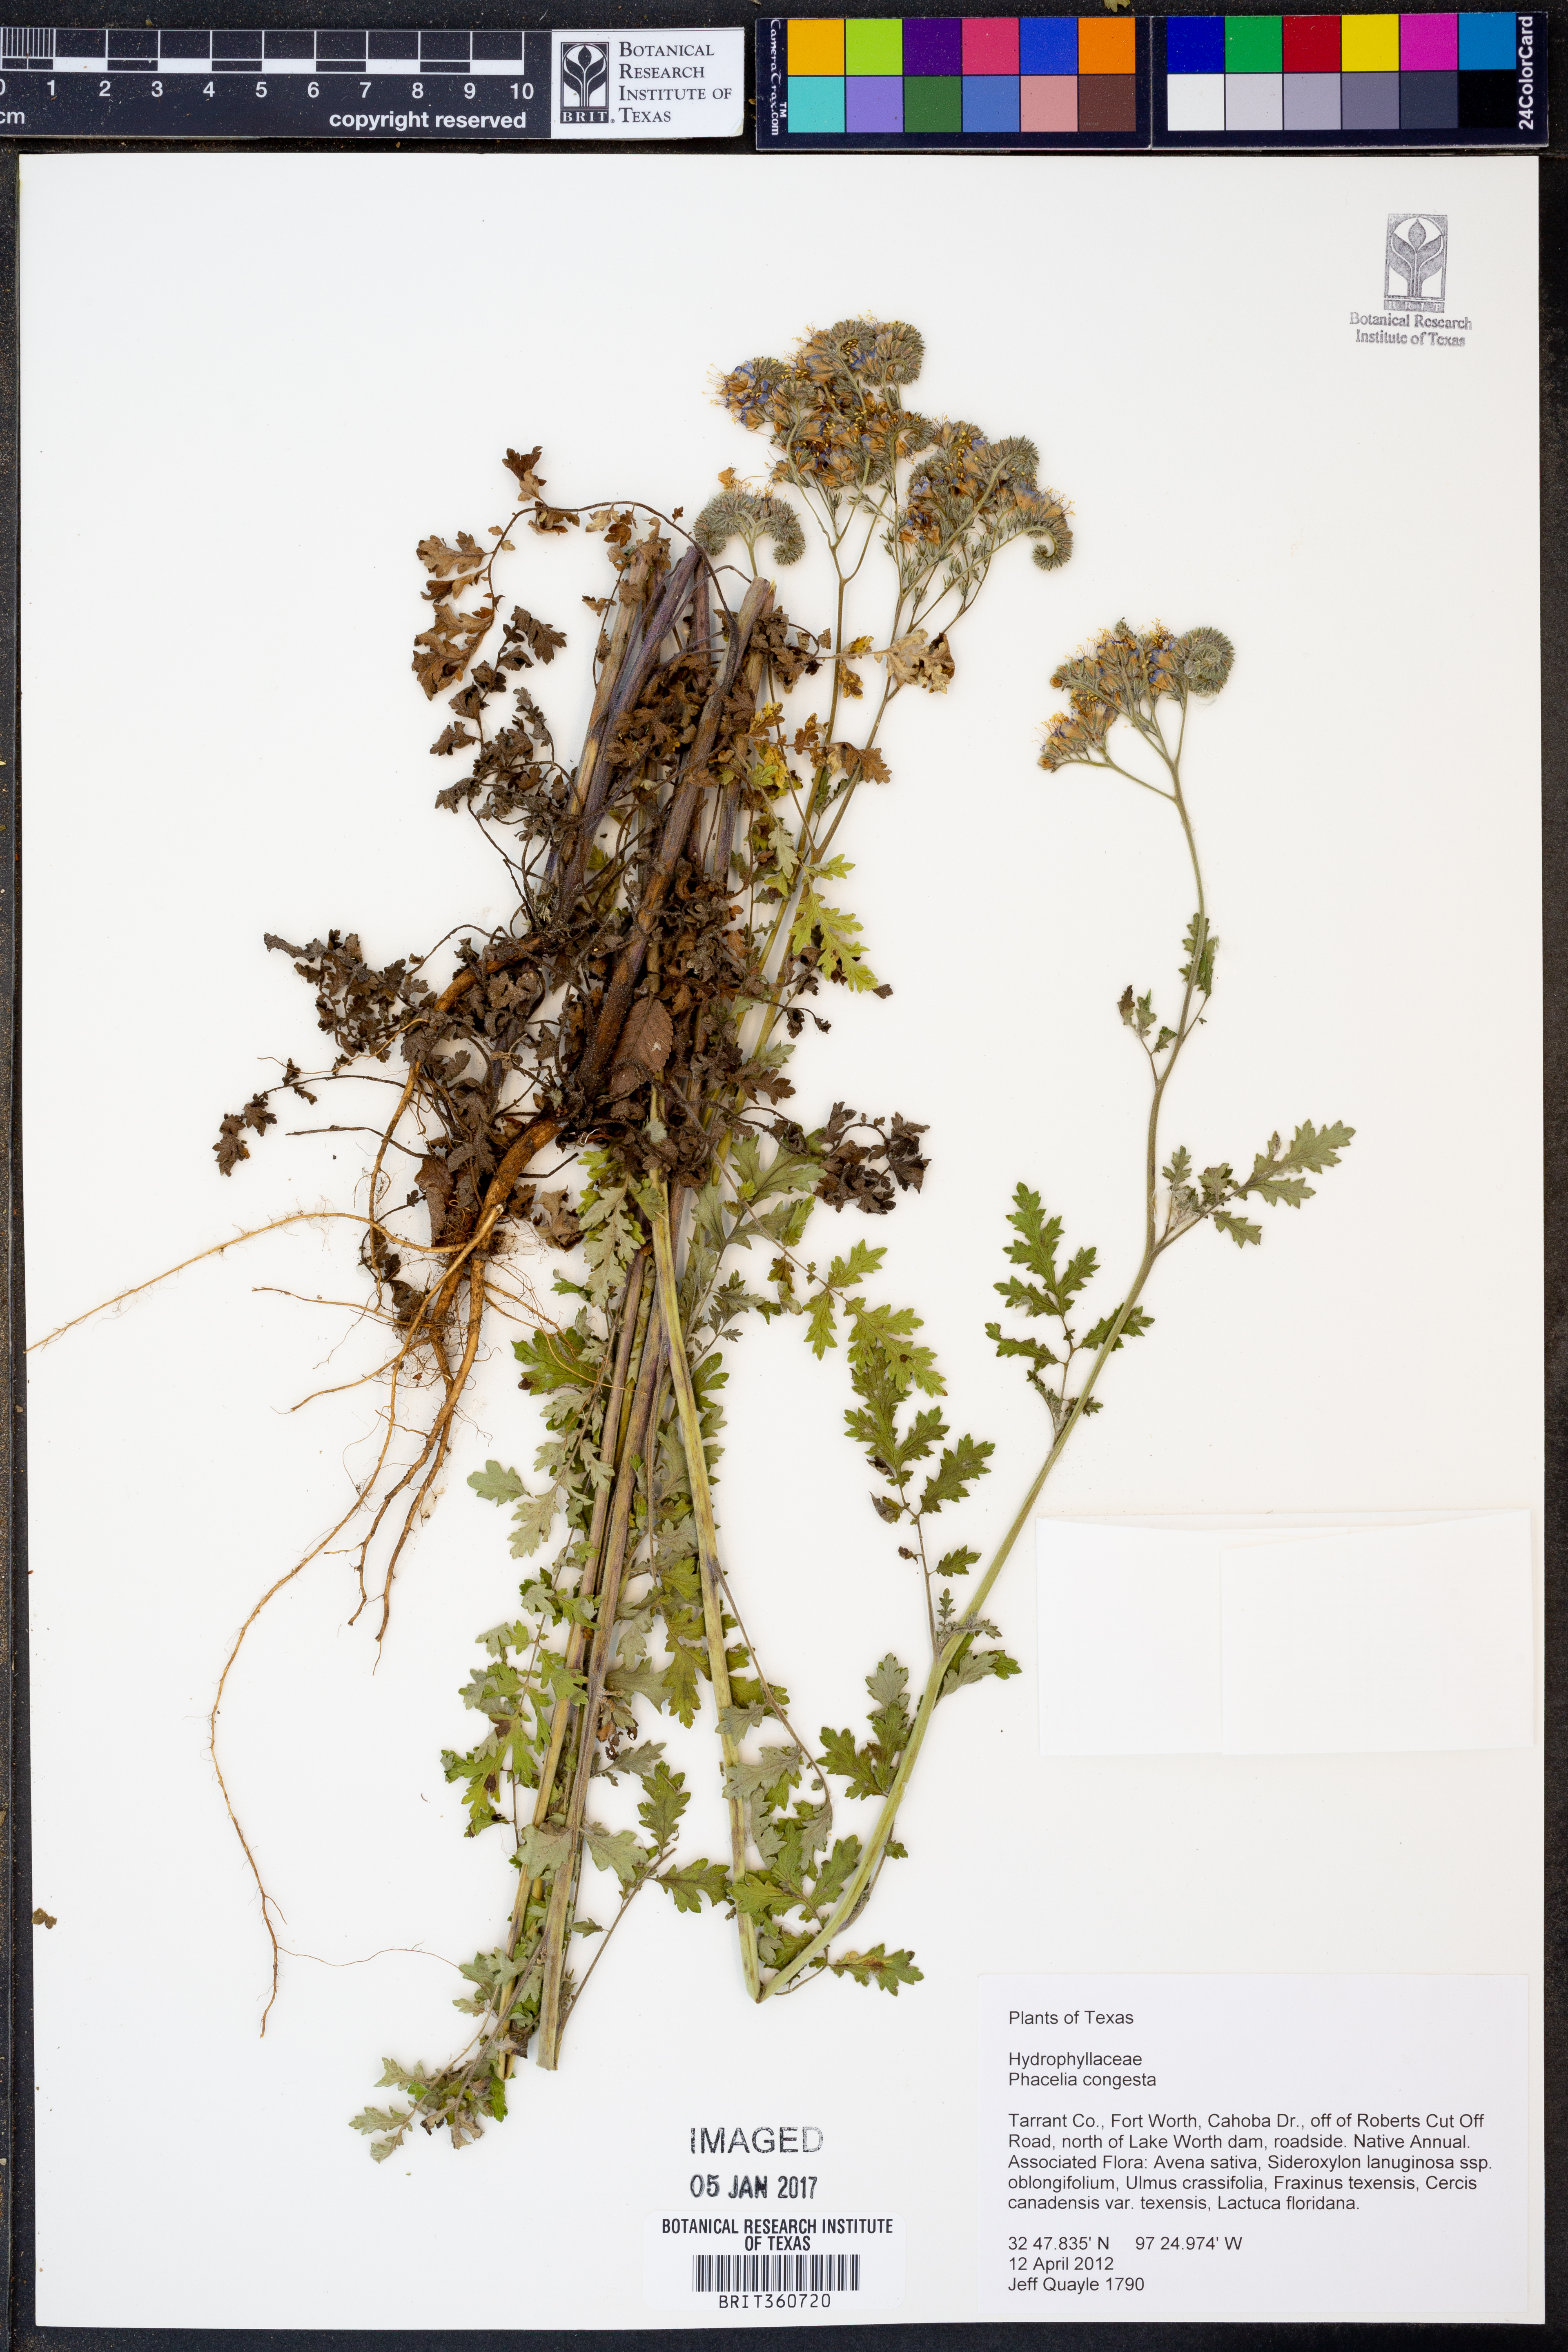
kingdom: Plantae
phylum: Tracheophyta
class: Magnoliopsida
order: Boraginales
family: Hydrophyllaceae
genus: Phacelia
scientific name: Phacelia congesta
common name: Blue curls
